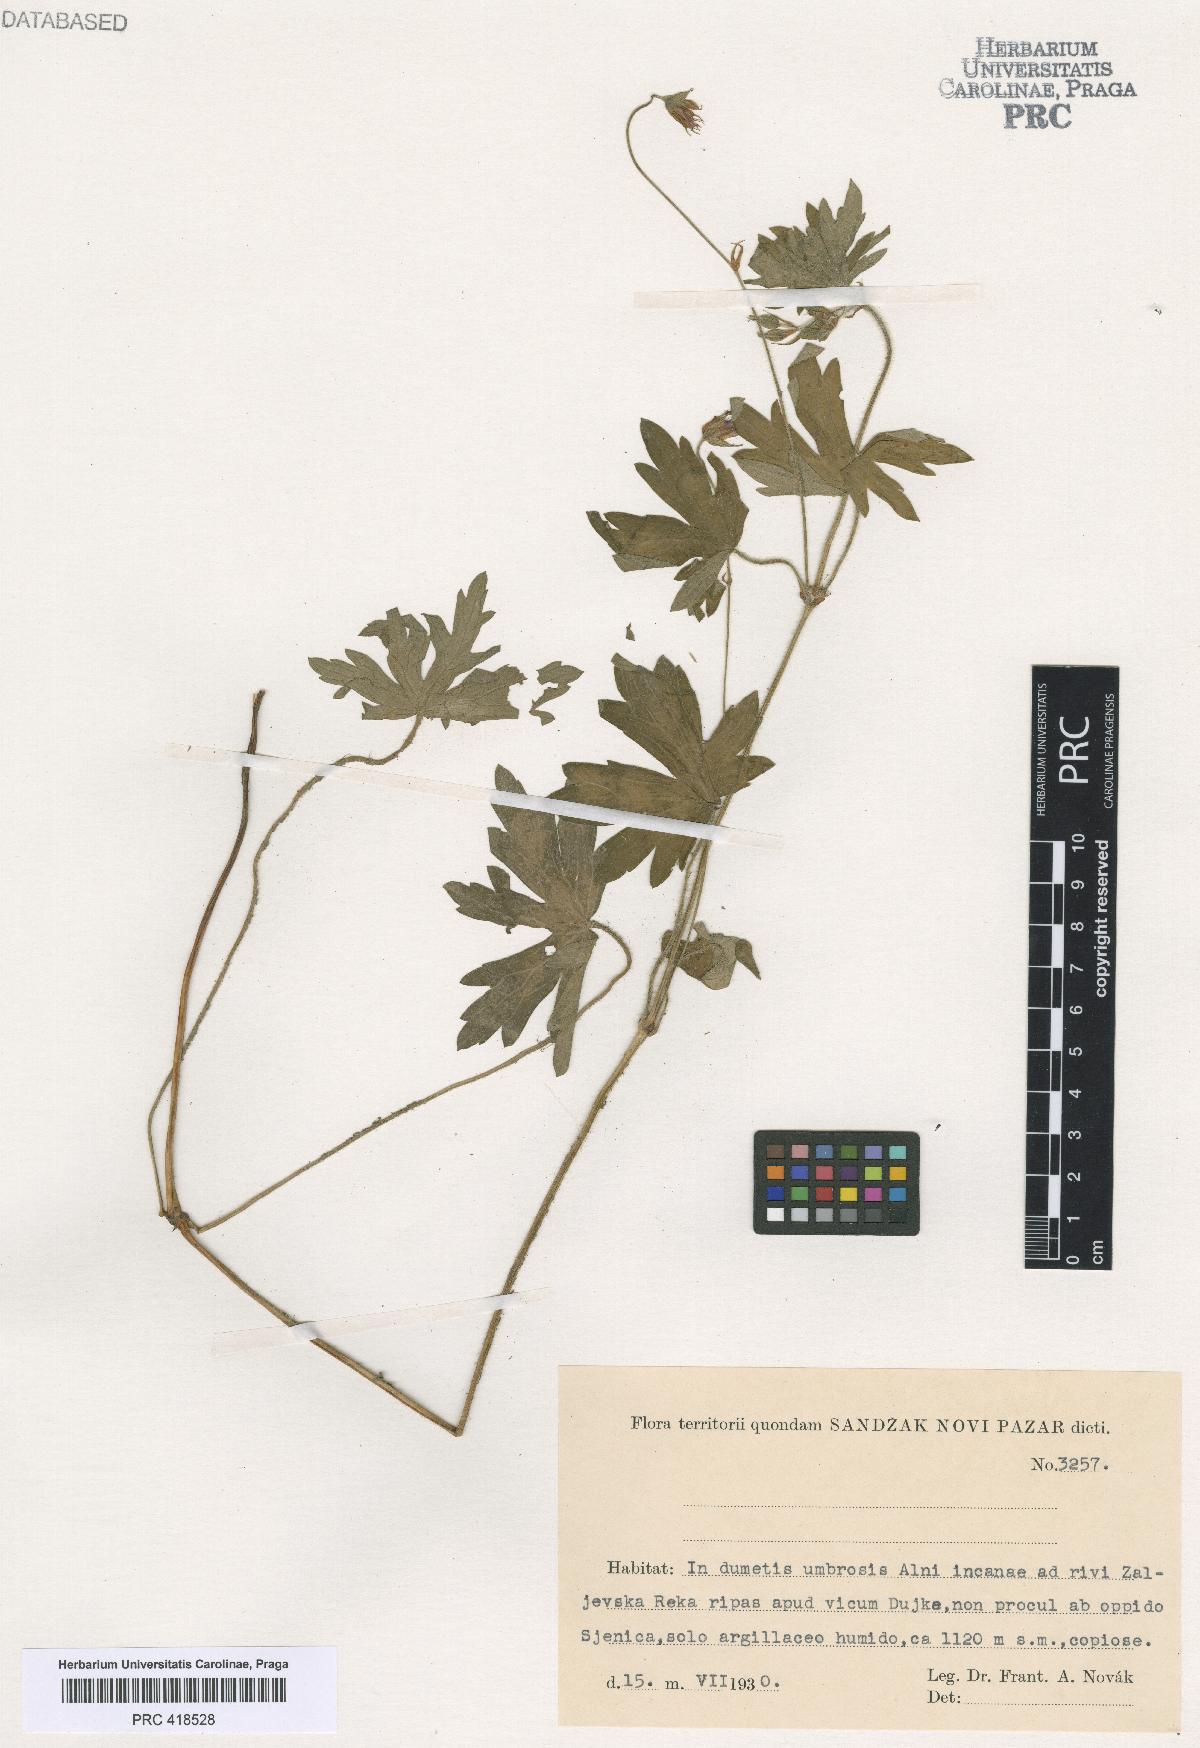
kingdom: Plantae
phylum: Tracheophyta
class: Magnoliopsida
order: Geraniales
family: Geraniaceae
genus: Geranium
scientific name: Geranium palustre
